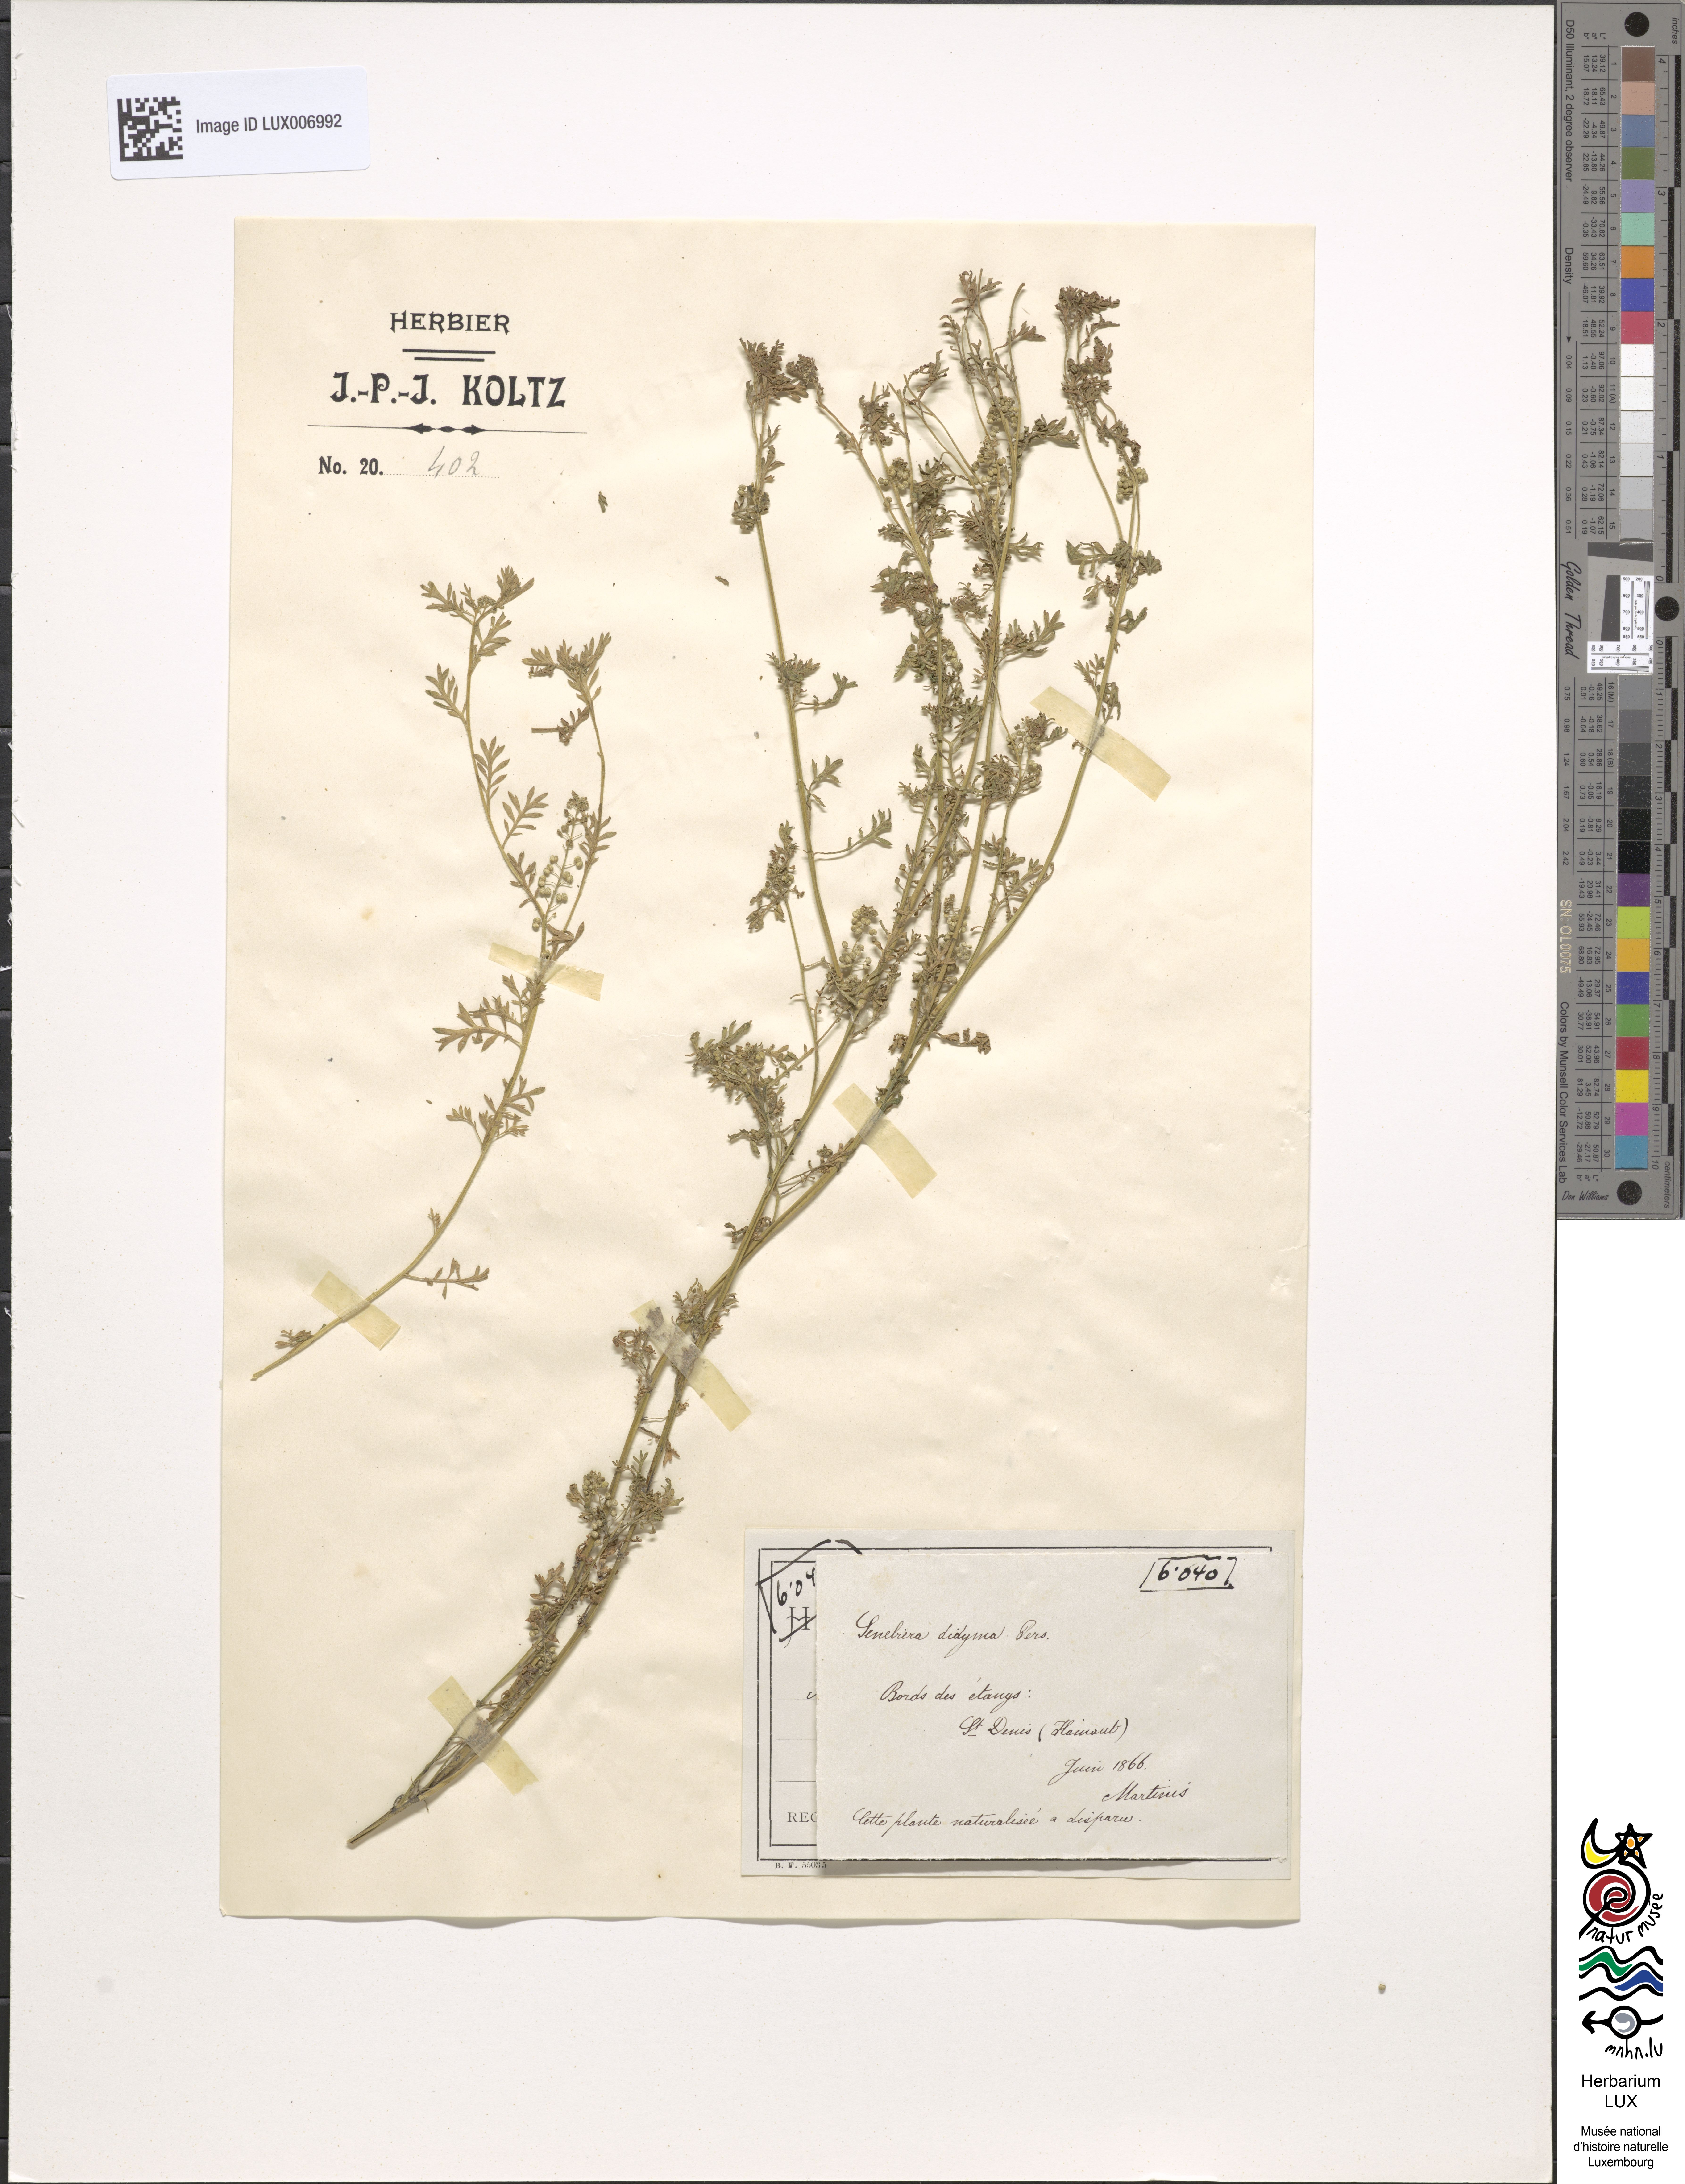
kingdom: Plantae
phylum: Tracheophyta
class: Magnoliopsida
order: Brassicales
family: Brassicaceae
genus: Lepidium
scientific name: Lepidium didymum
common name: Lesser swinecress
